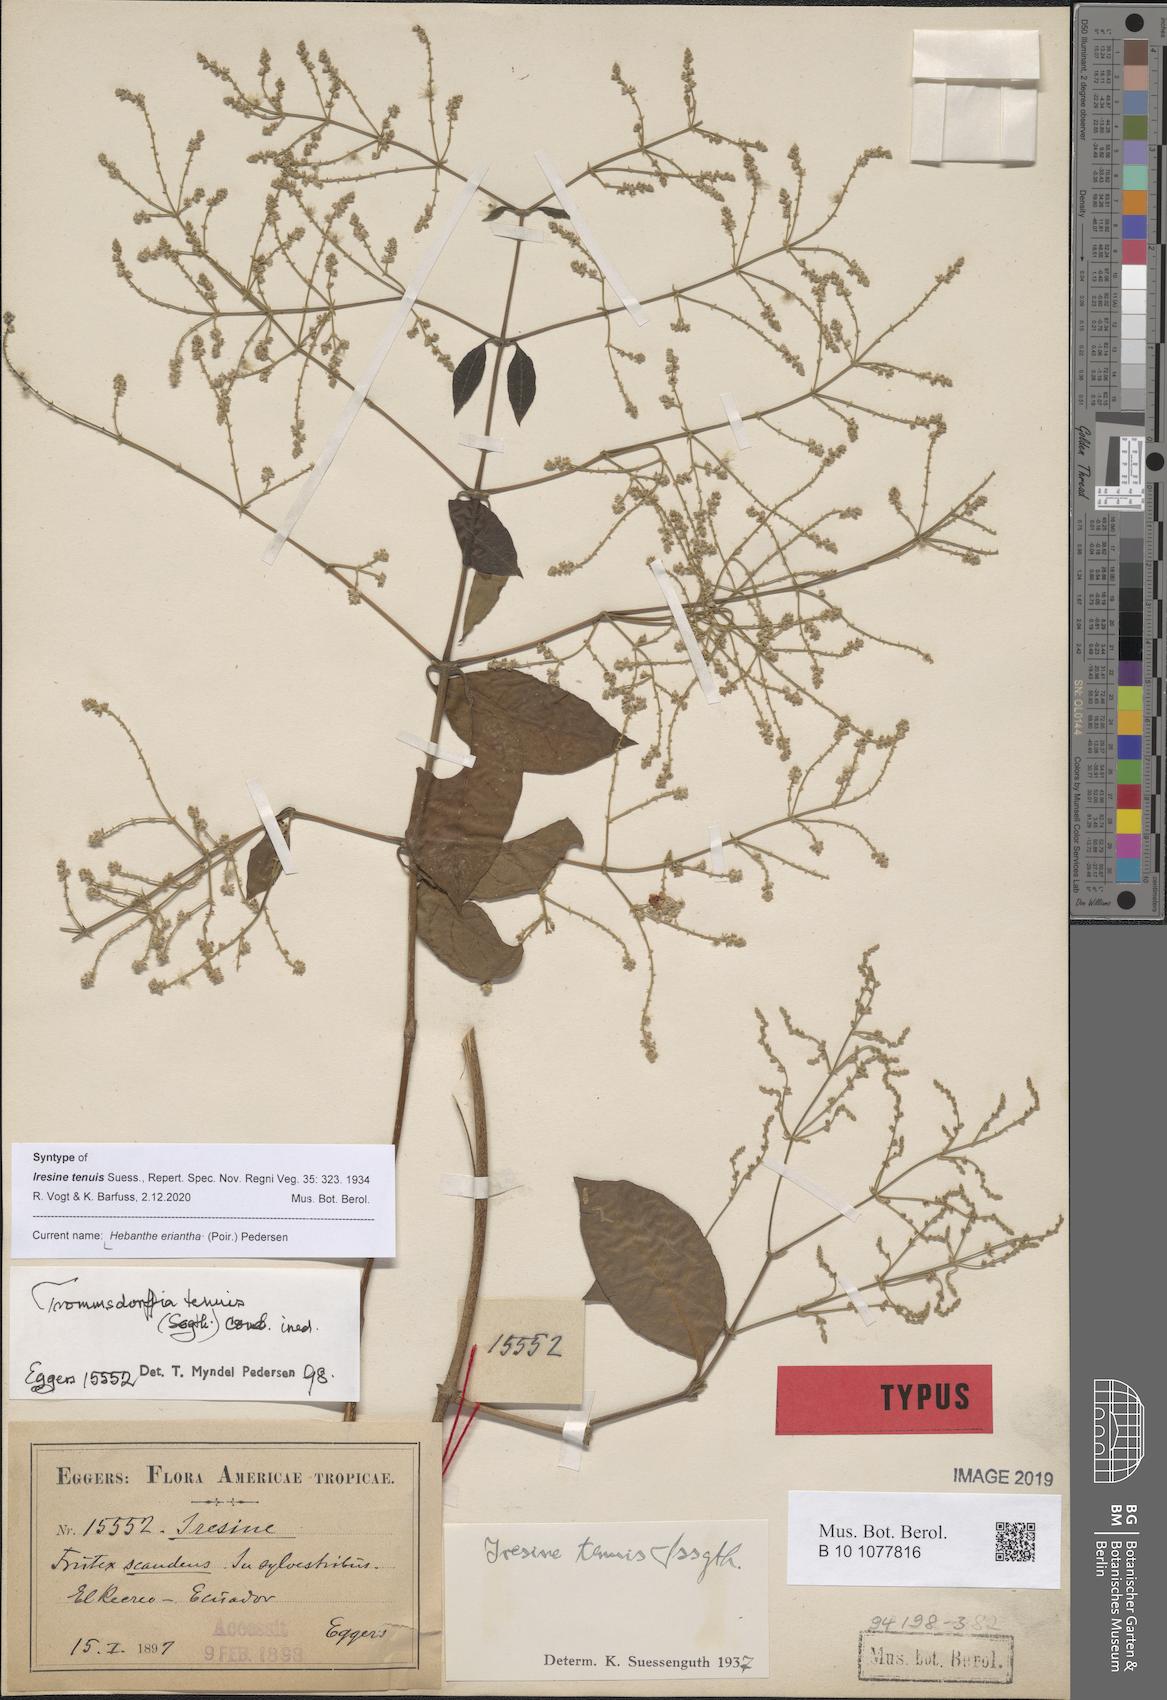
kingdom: Plantae
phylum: Tracheophyta
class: Magnoliopsida
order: Caryophyllales
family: Amaranthaceae
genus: Hebanthe
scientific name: Hebanthe erianthos
